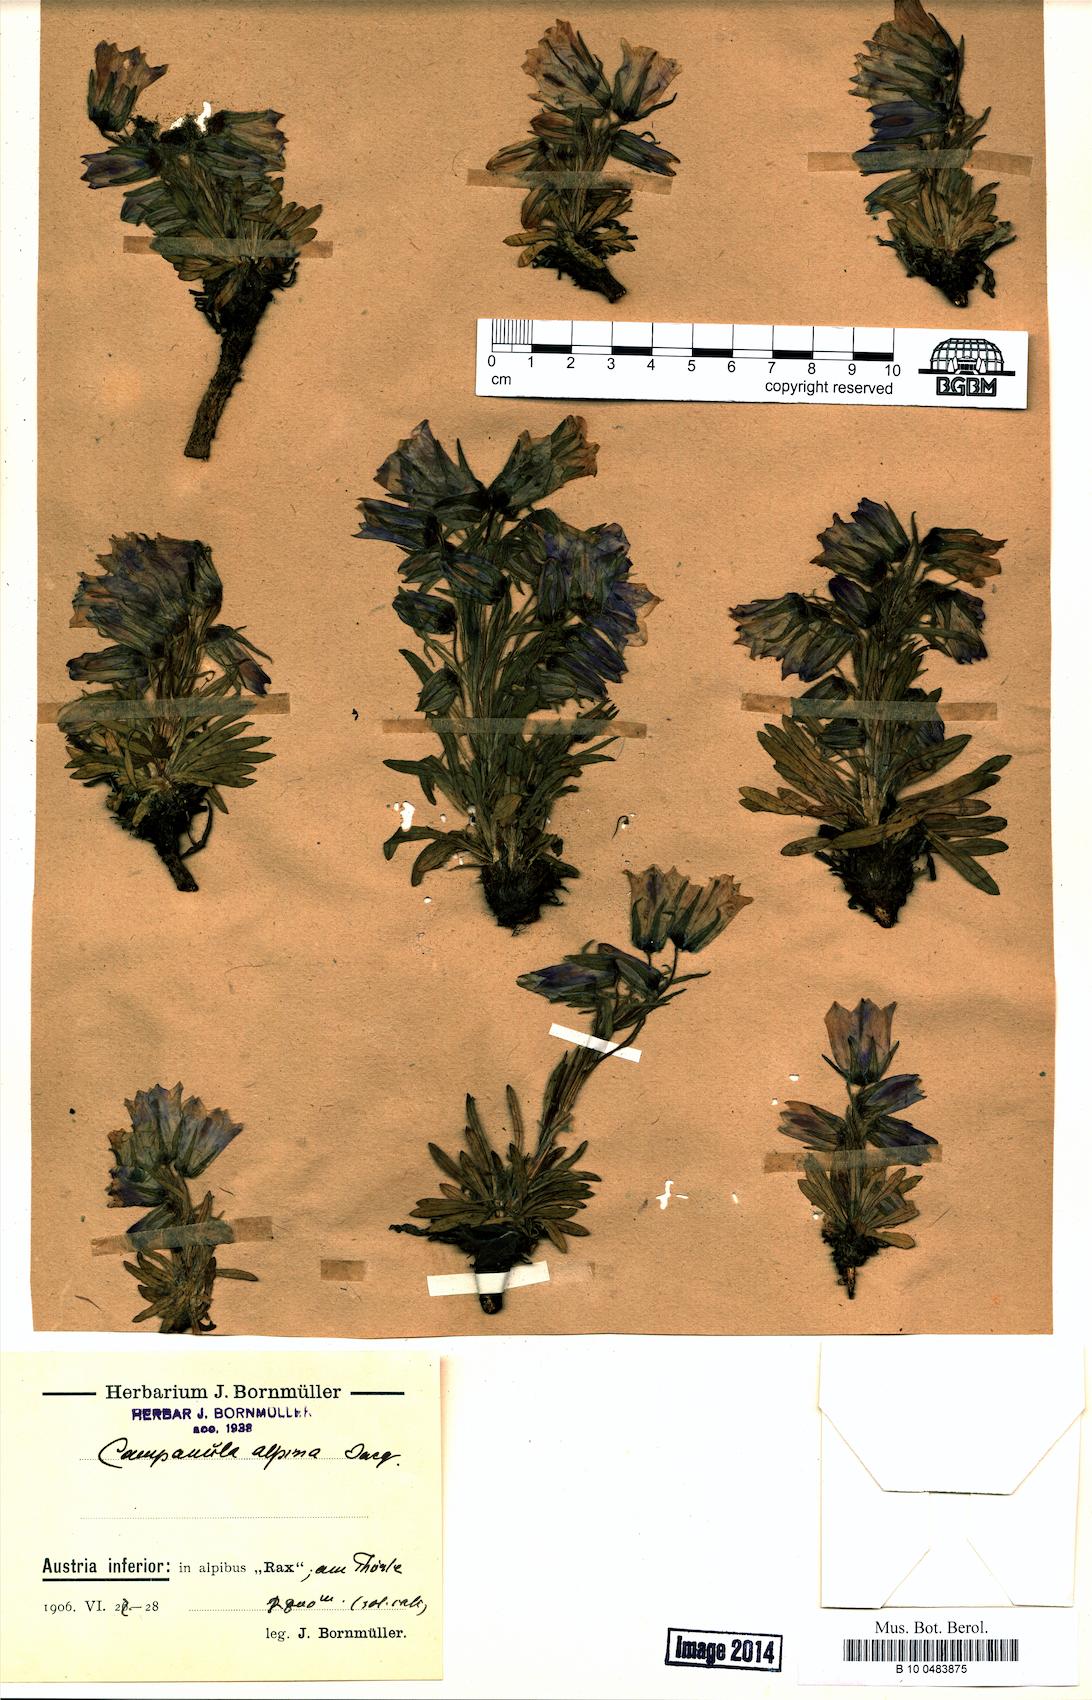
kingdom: Plantae
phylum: Tracheophyta
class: Magnoliopsida
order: Asterales
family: Campanulaceae
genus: Campanula
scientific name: Campanula alpina
